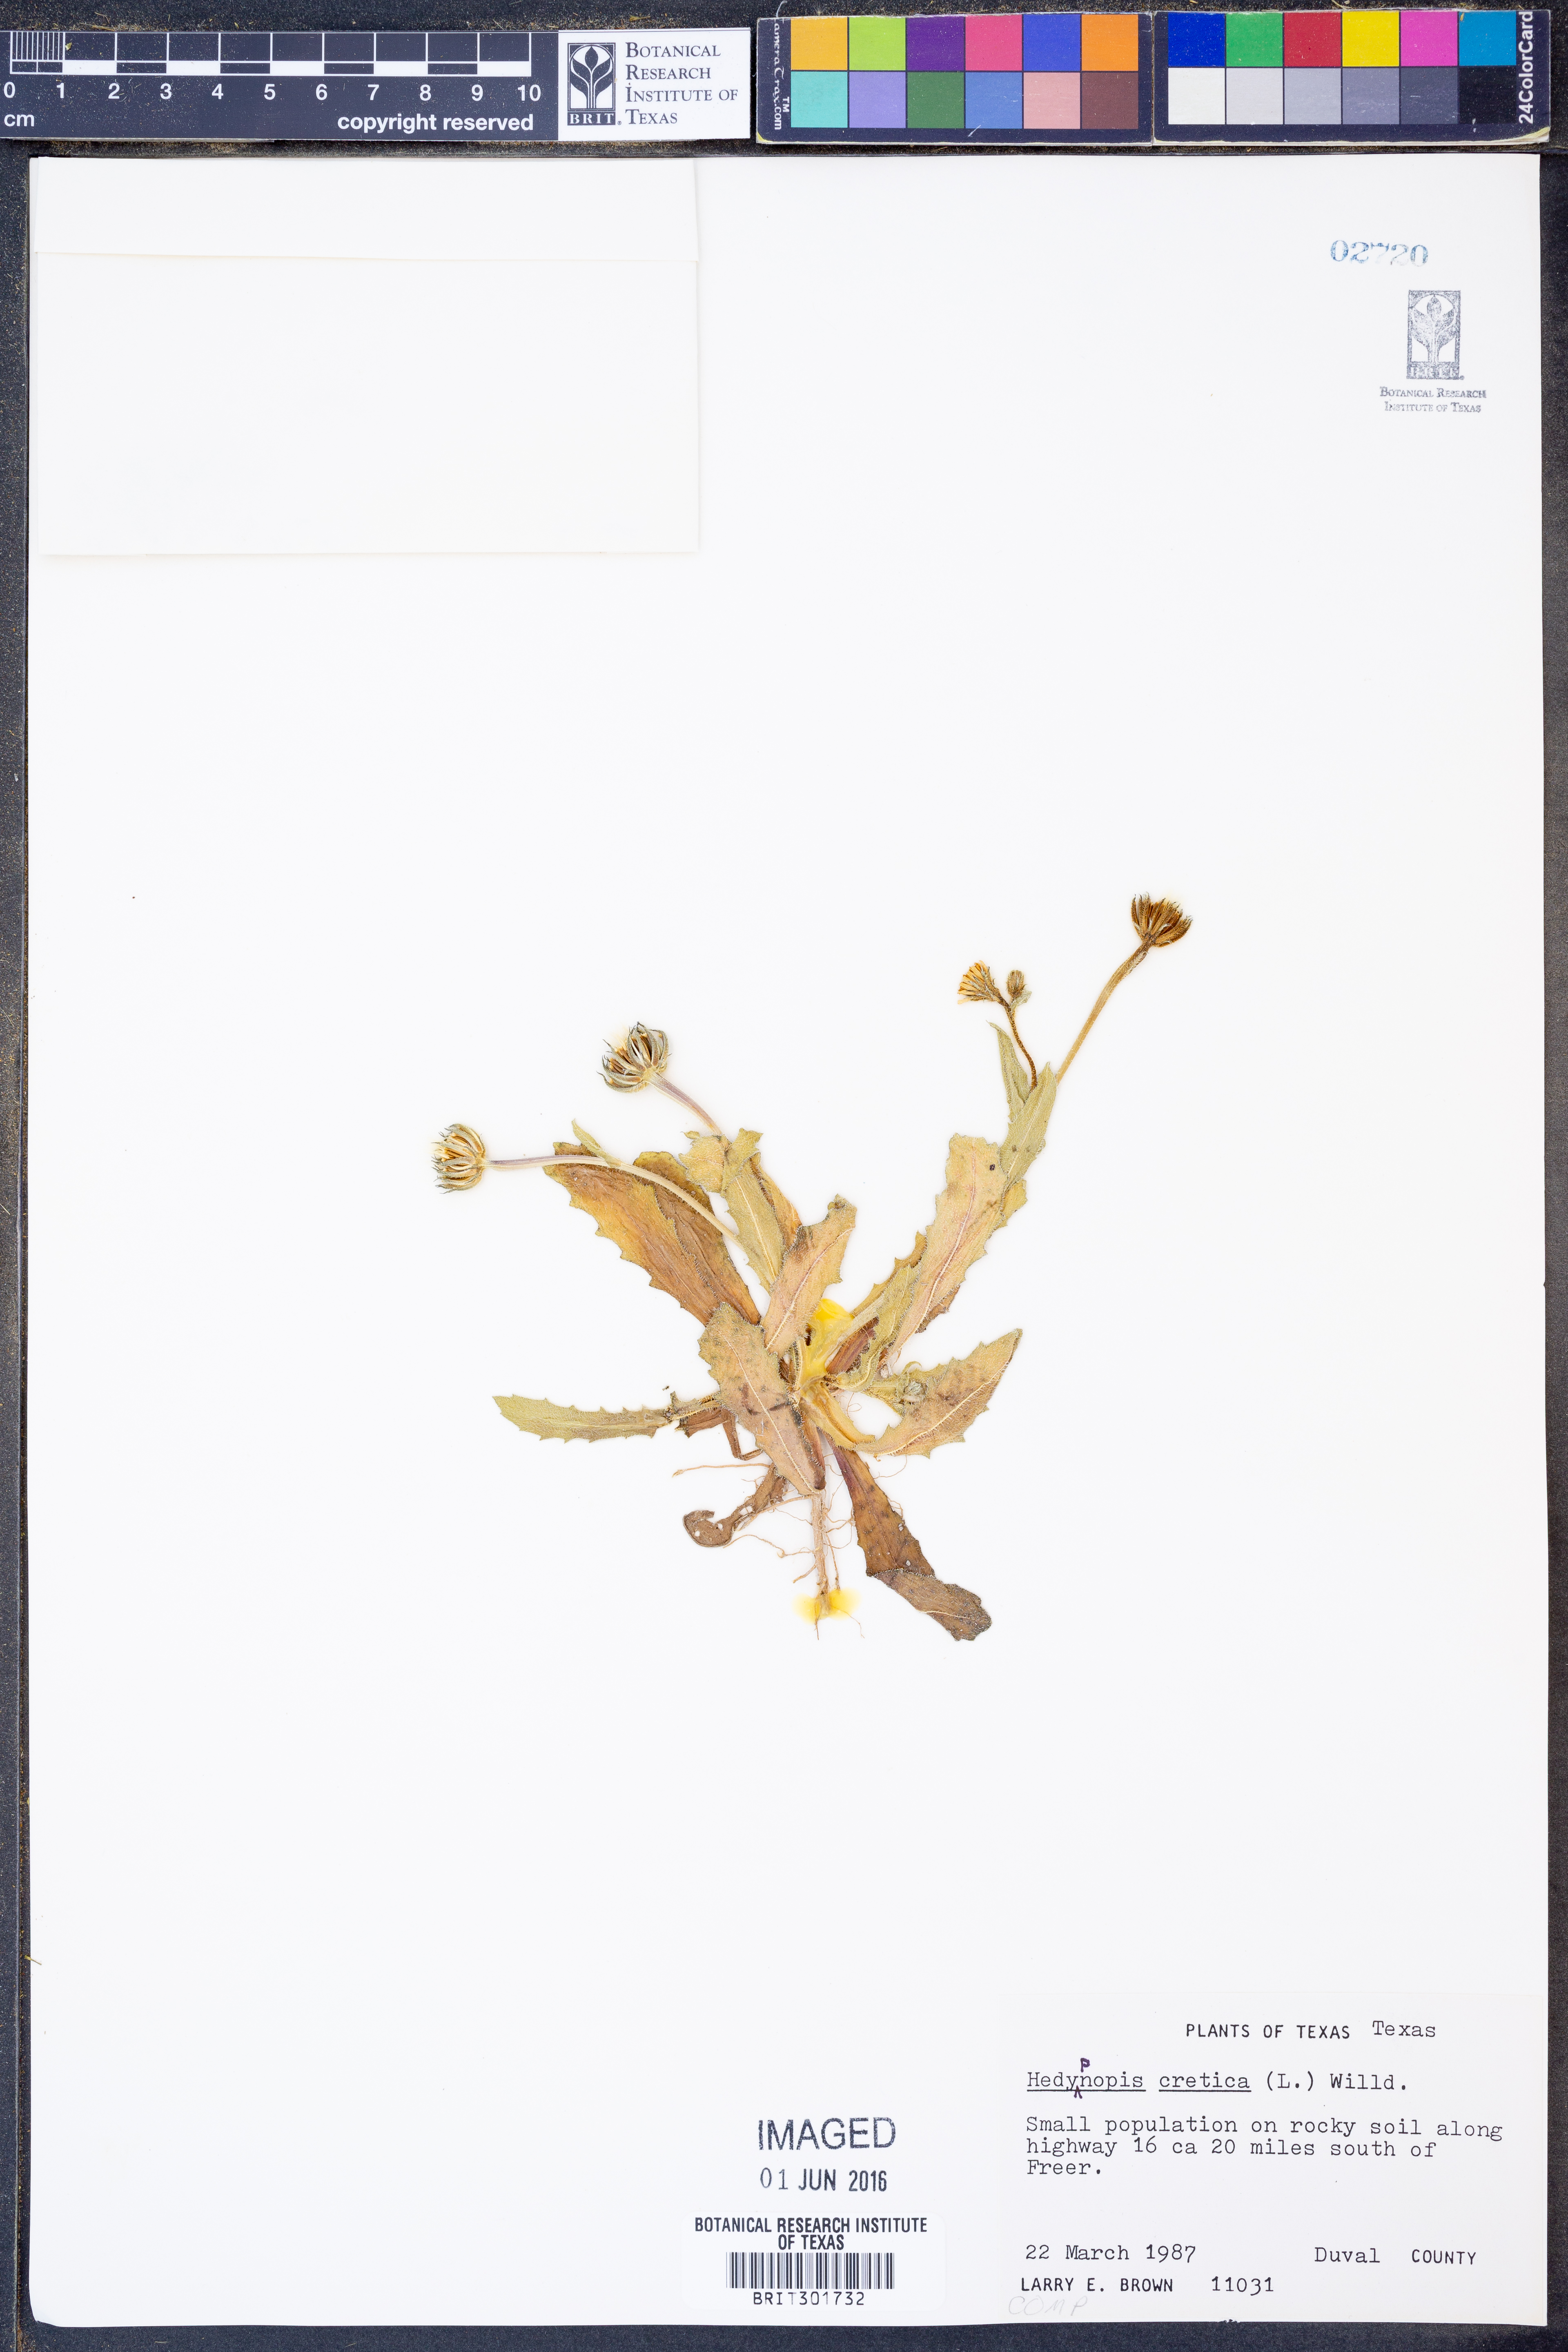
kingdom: Plantae
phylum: Tracheophyta
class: Magnoliopsida
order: Asterales
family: Asteraceae
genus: Hedypnois
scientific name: Hedypnois cretica
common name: Scaly hawkbit
